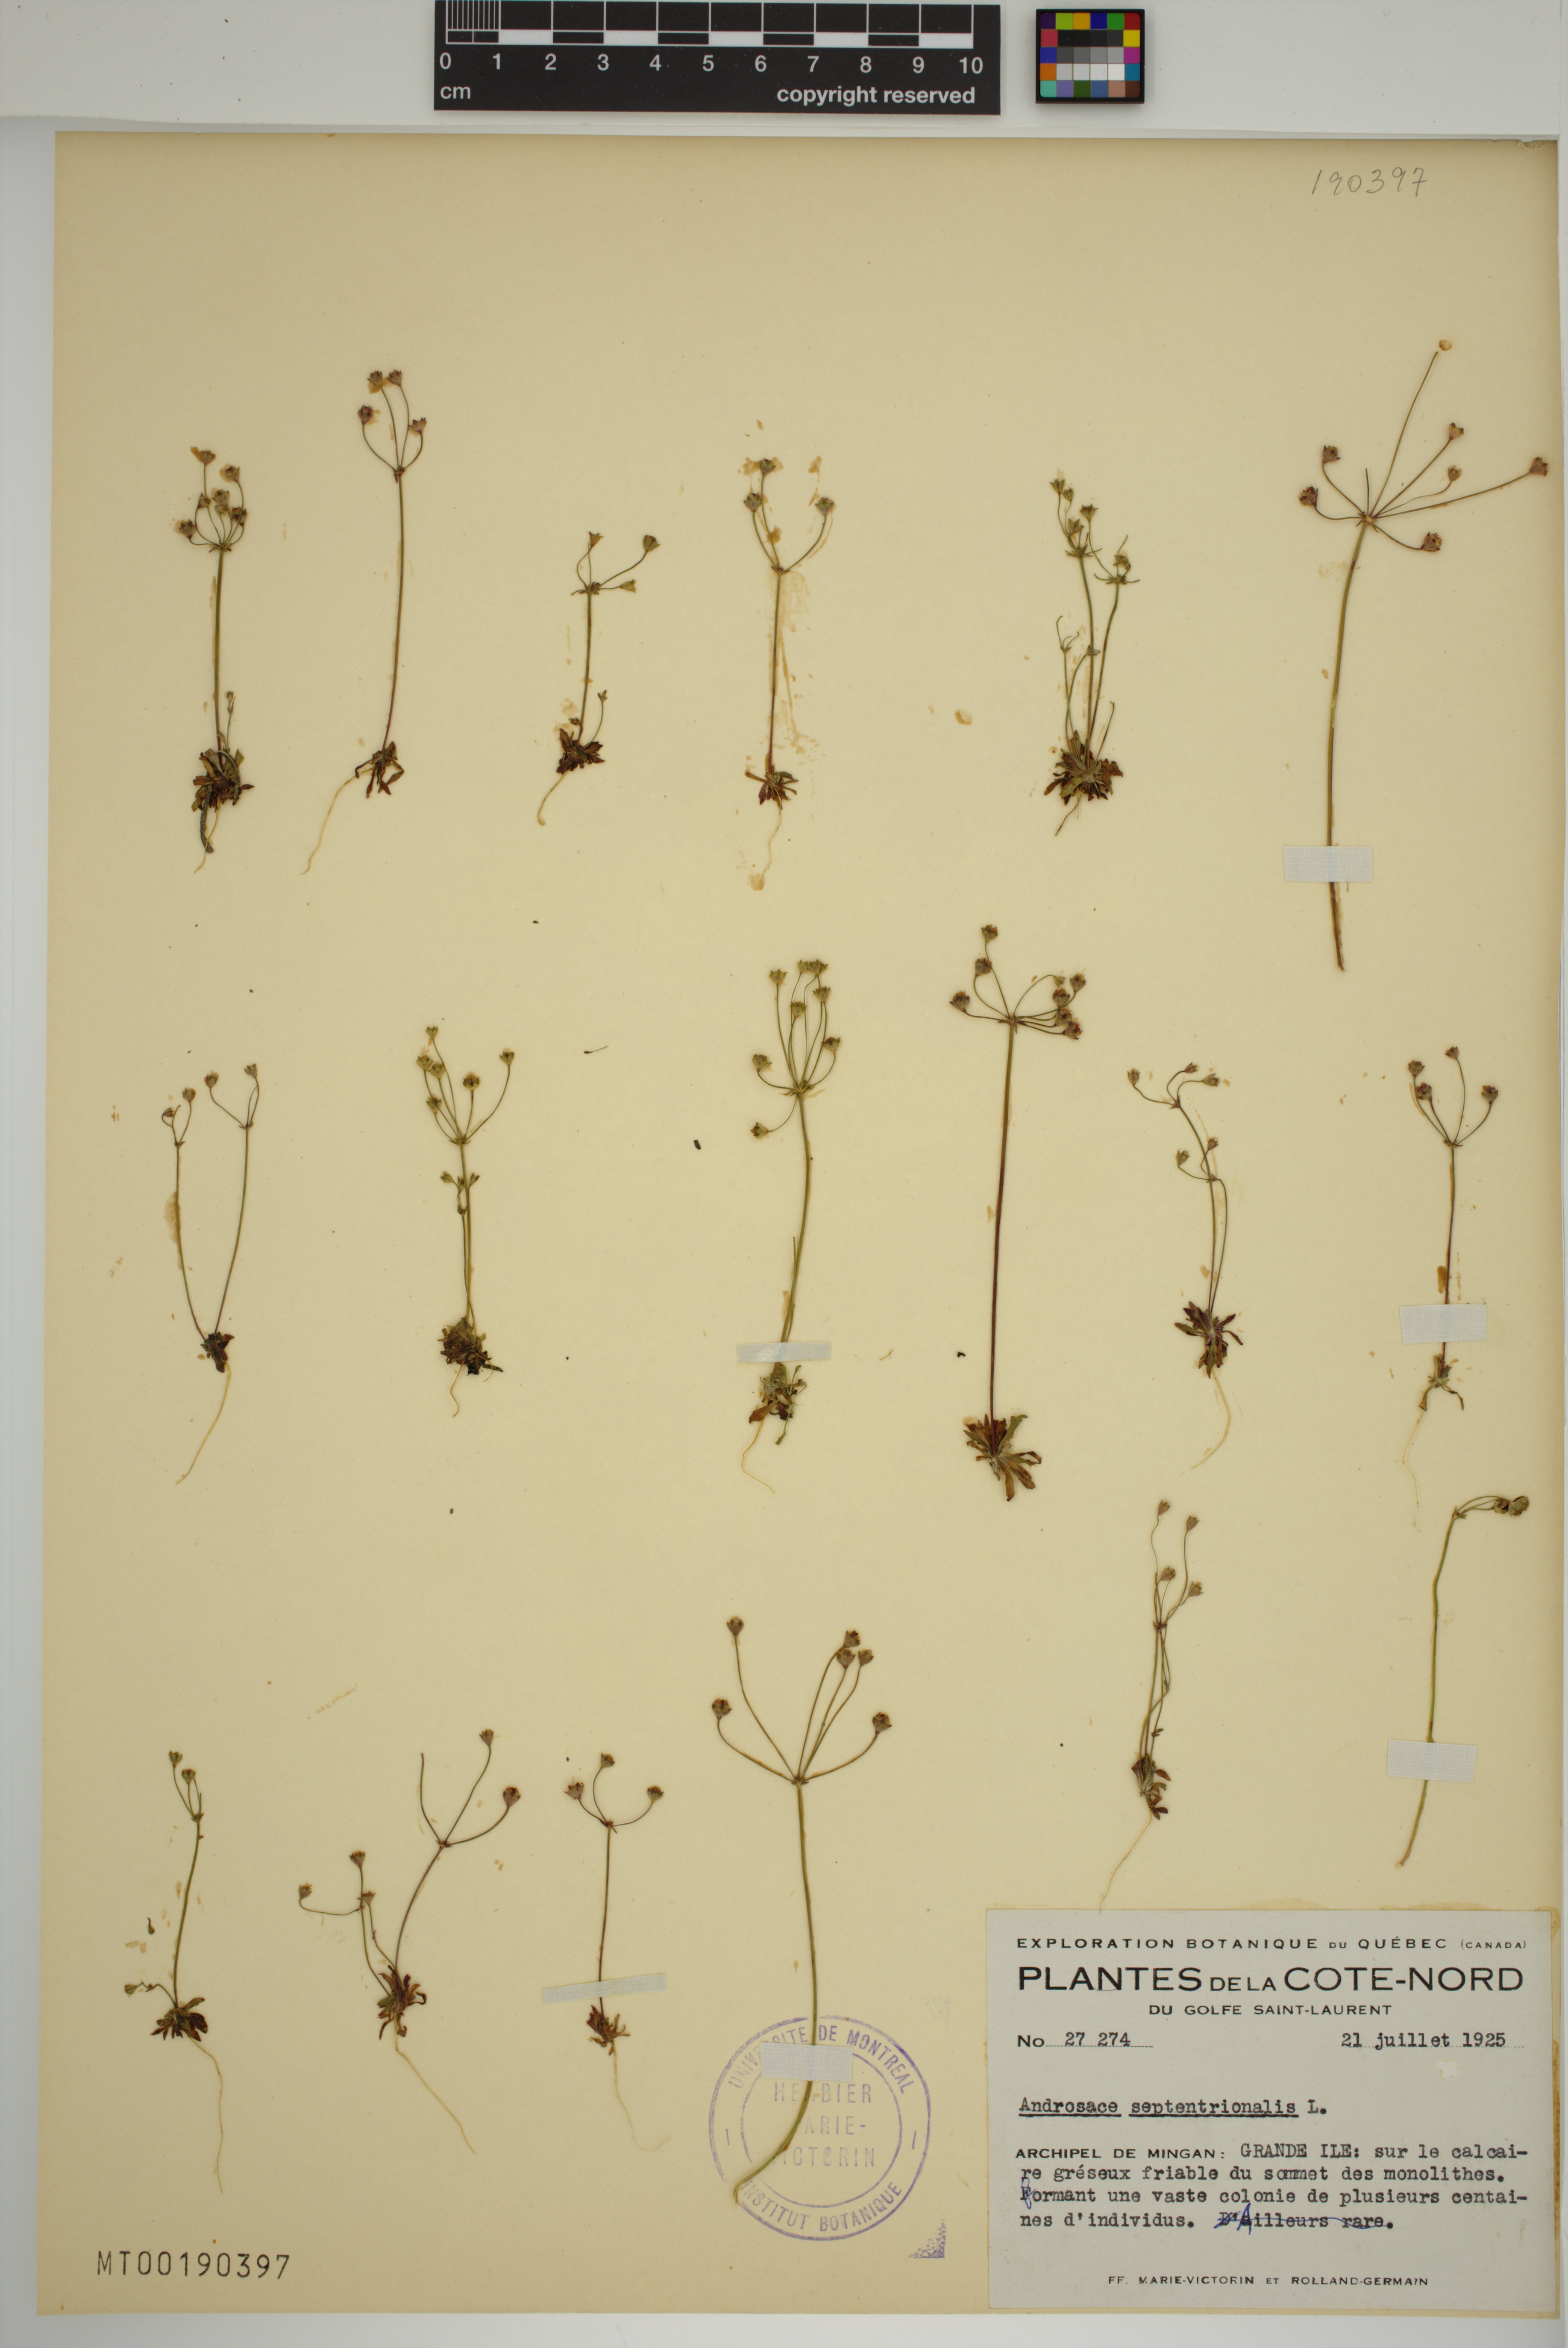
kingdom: Plantae
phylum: Tracheophyta
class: Magnoliopsida
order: Ericales
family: Primulaceae
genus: Androsace
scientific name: Androsace septentrionalis
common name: Hairy northern fairy-candelabra
